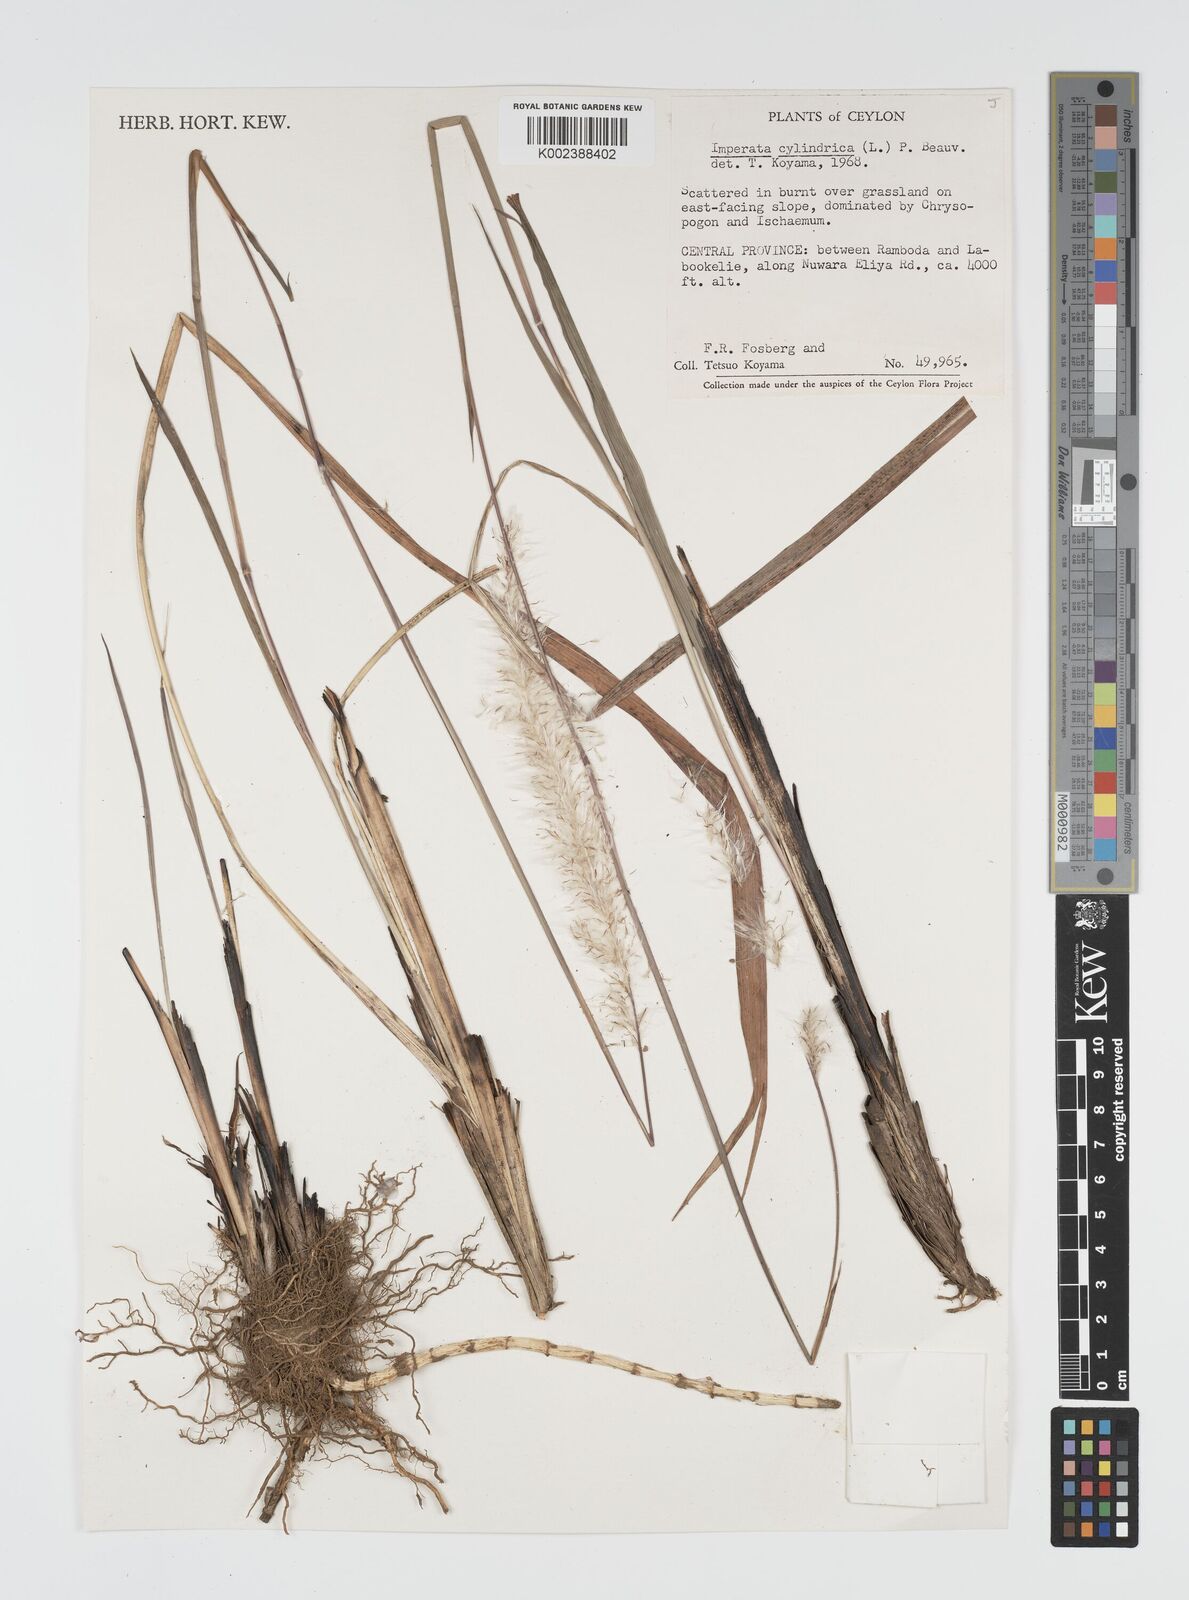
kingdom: Plantae
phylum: Tracheophyta
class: Liliopsida
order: Poales
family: Poaceae
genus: Imperata
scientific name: Imperata cylindrica
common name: Cogongrass
